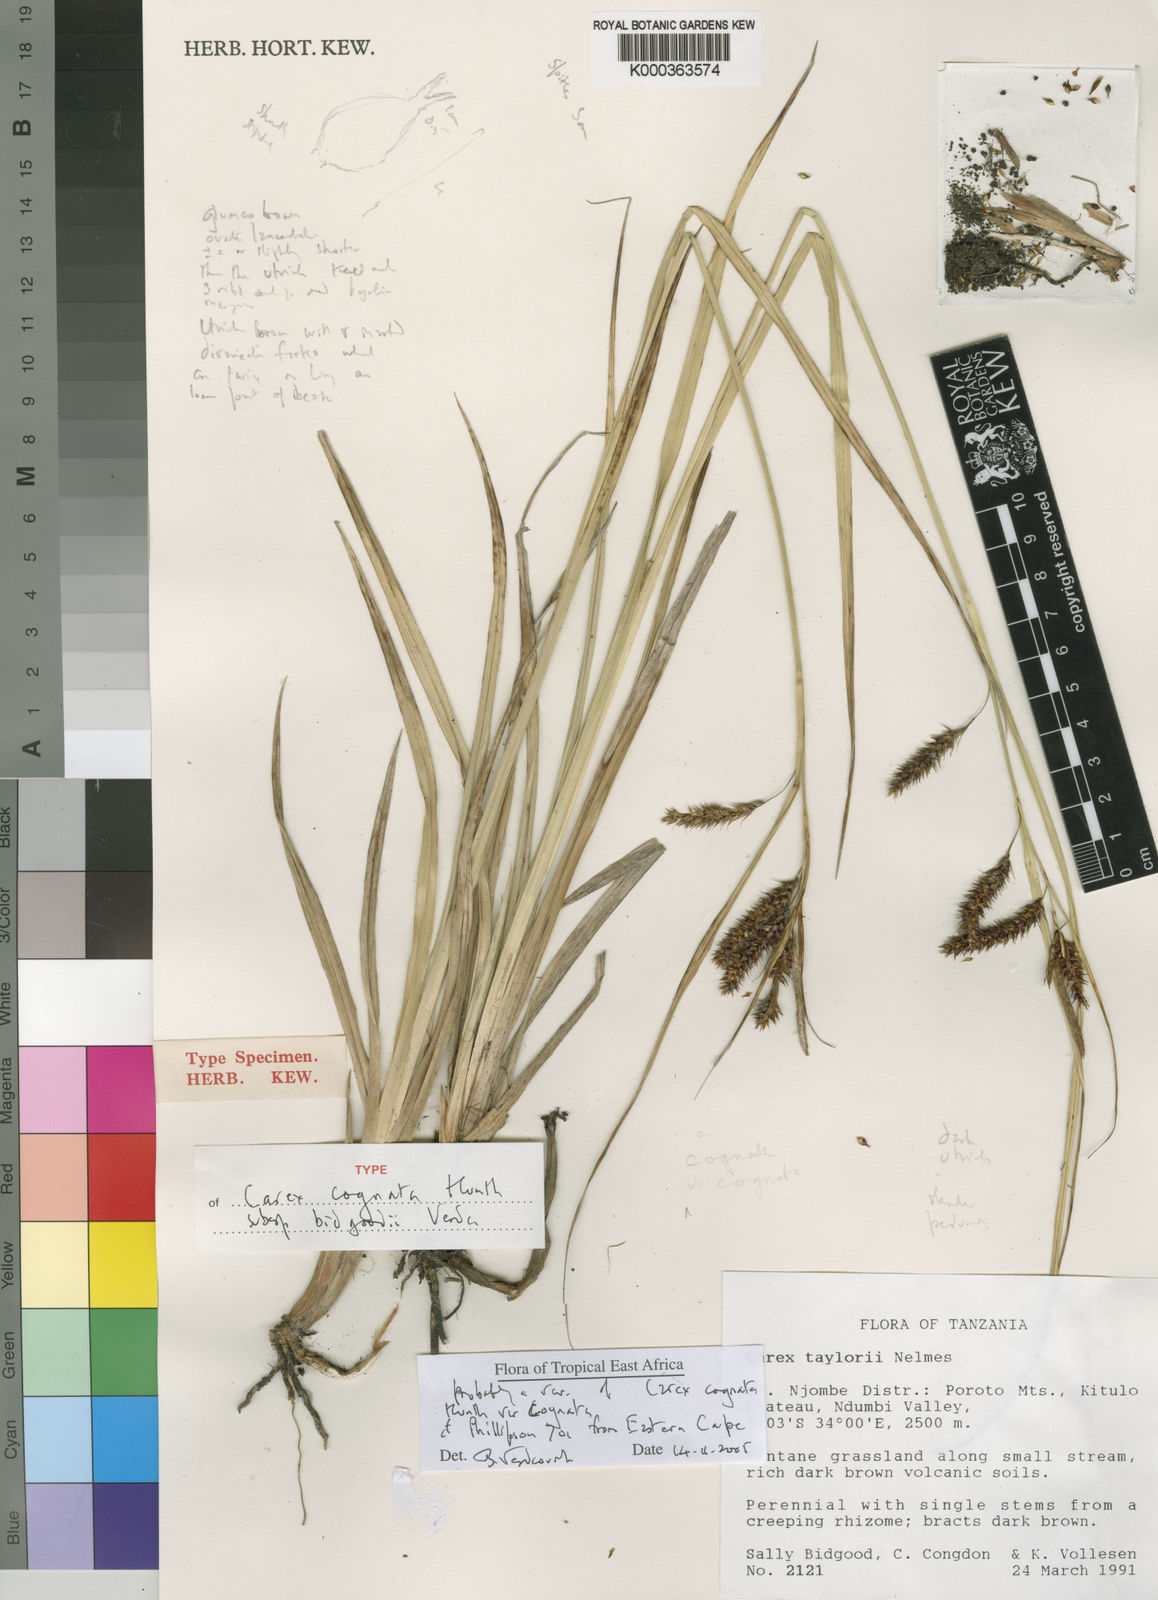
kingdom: Plantae
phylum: Tracheophyta
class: Liliopsida
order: Poales
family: Cyperaceae
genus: Carex
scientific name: Carex cognata
